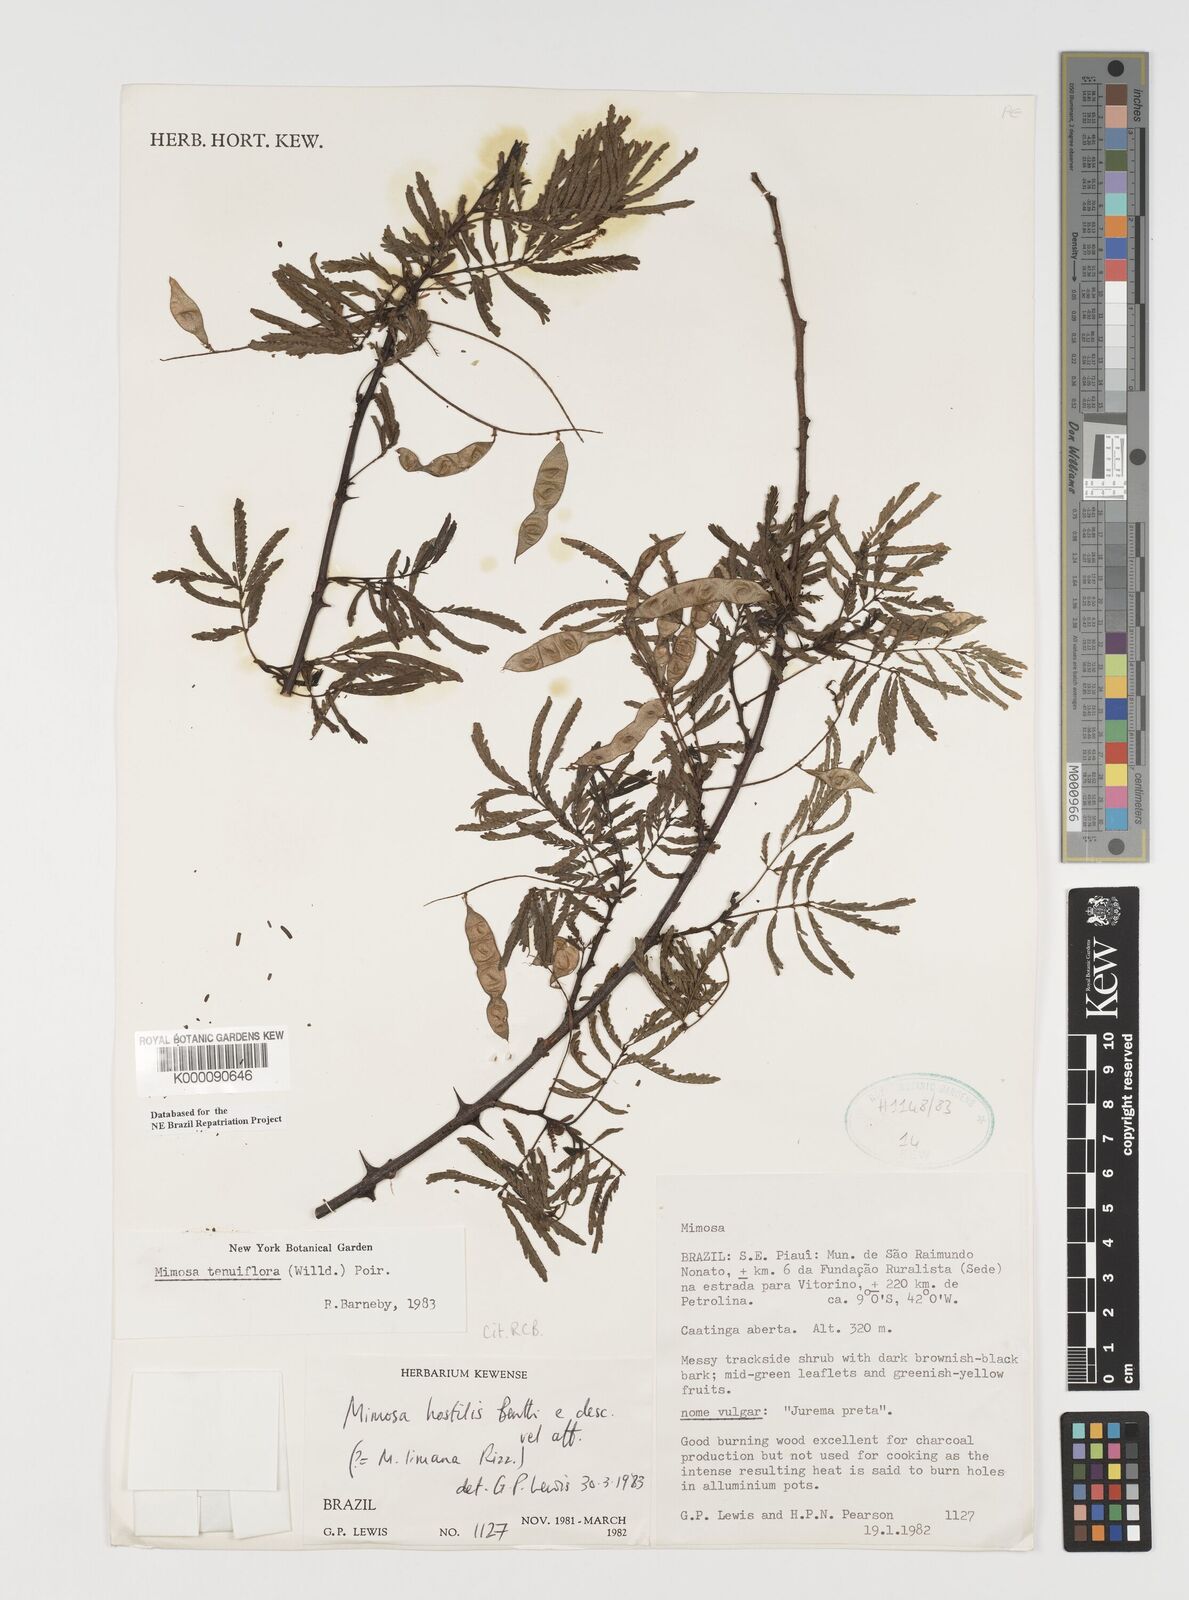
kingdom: Plantae
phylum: Tracheophyta
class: Magnoliopsida
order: Fabales
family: Fabaceae
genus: Mimosa
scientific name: Mimosa tenuiflora
